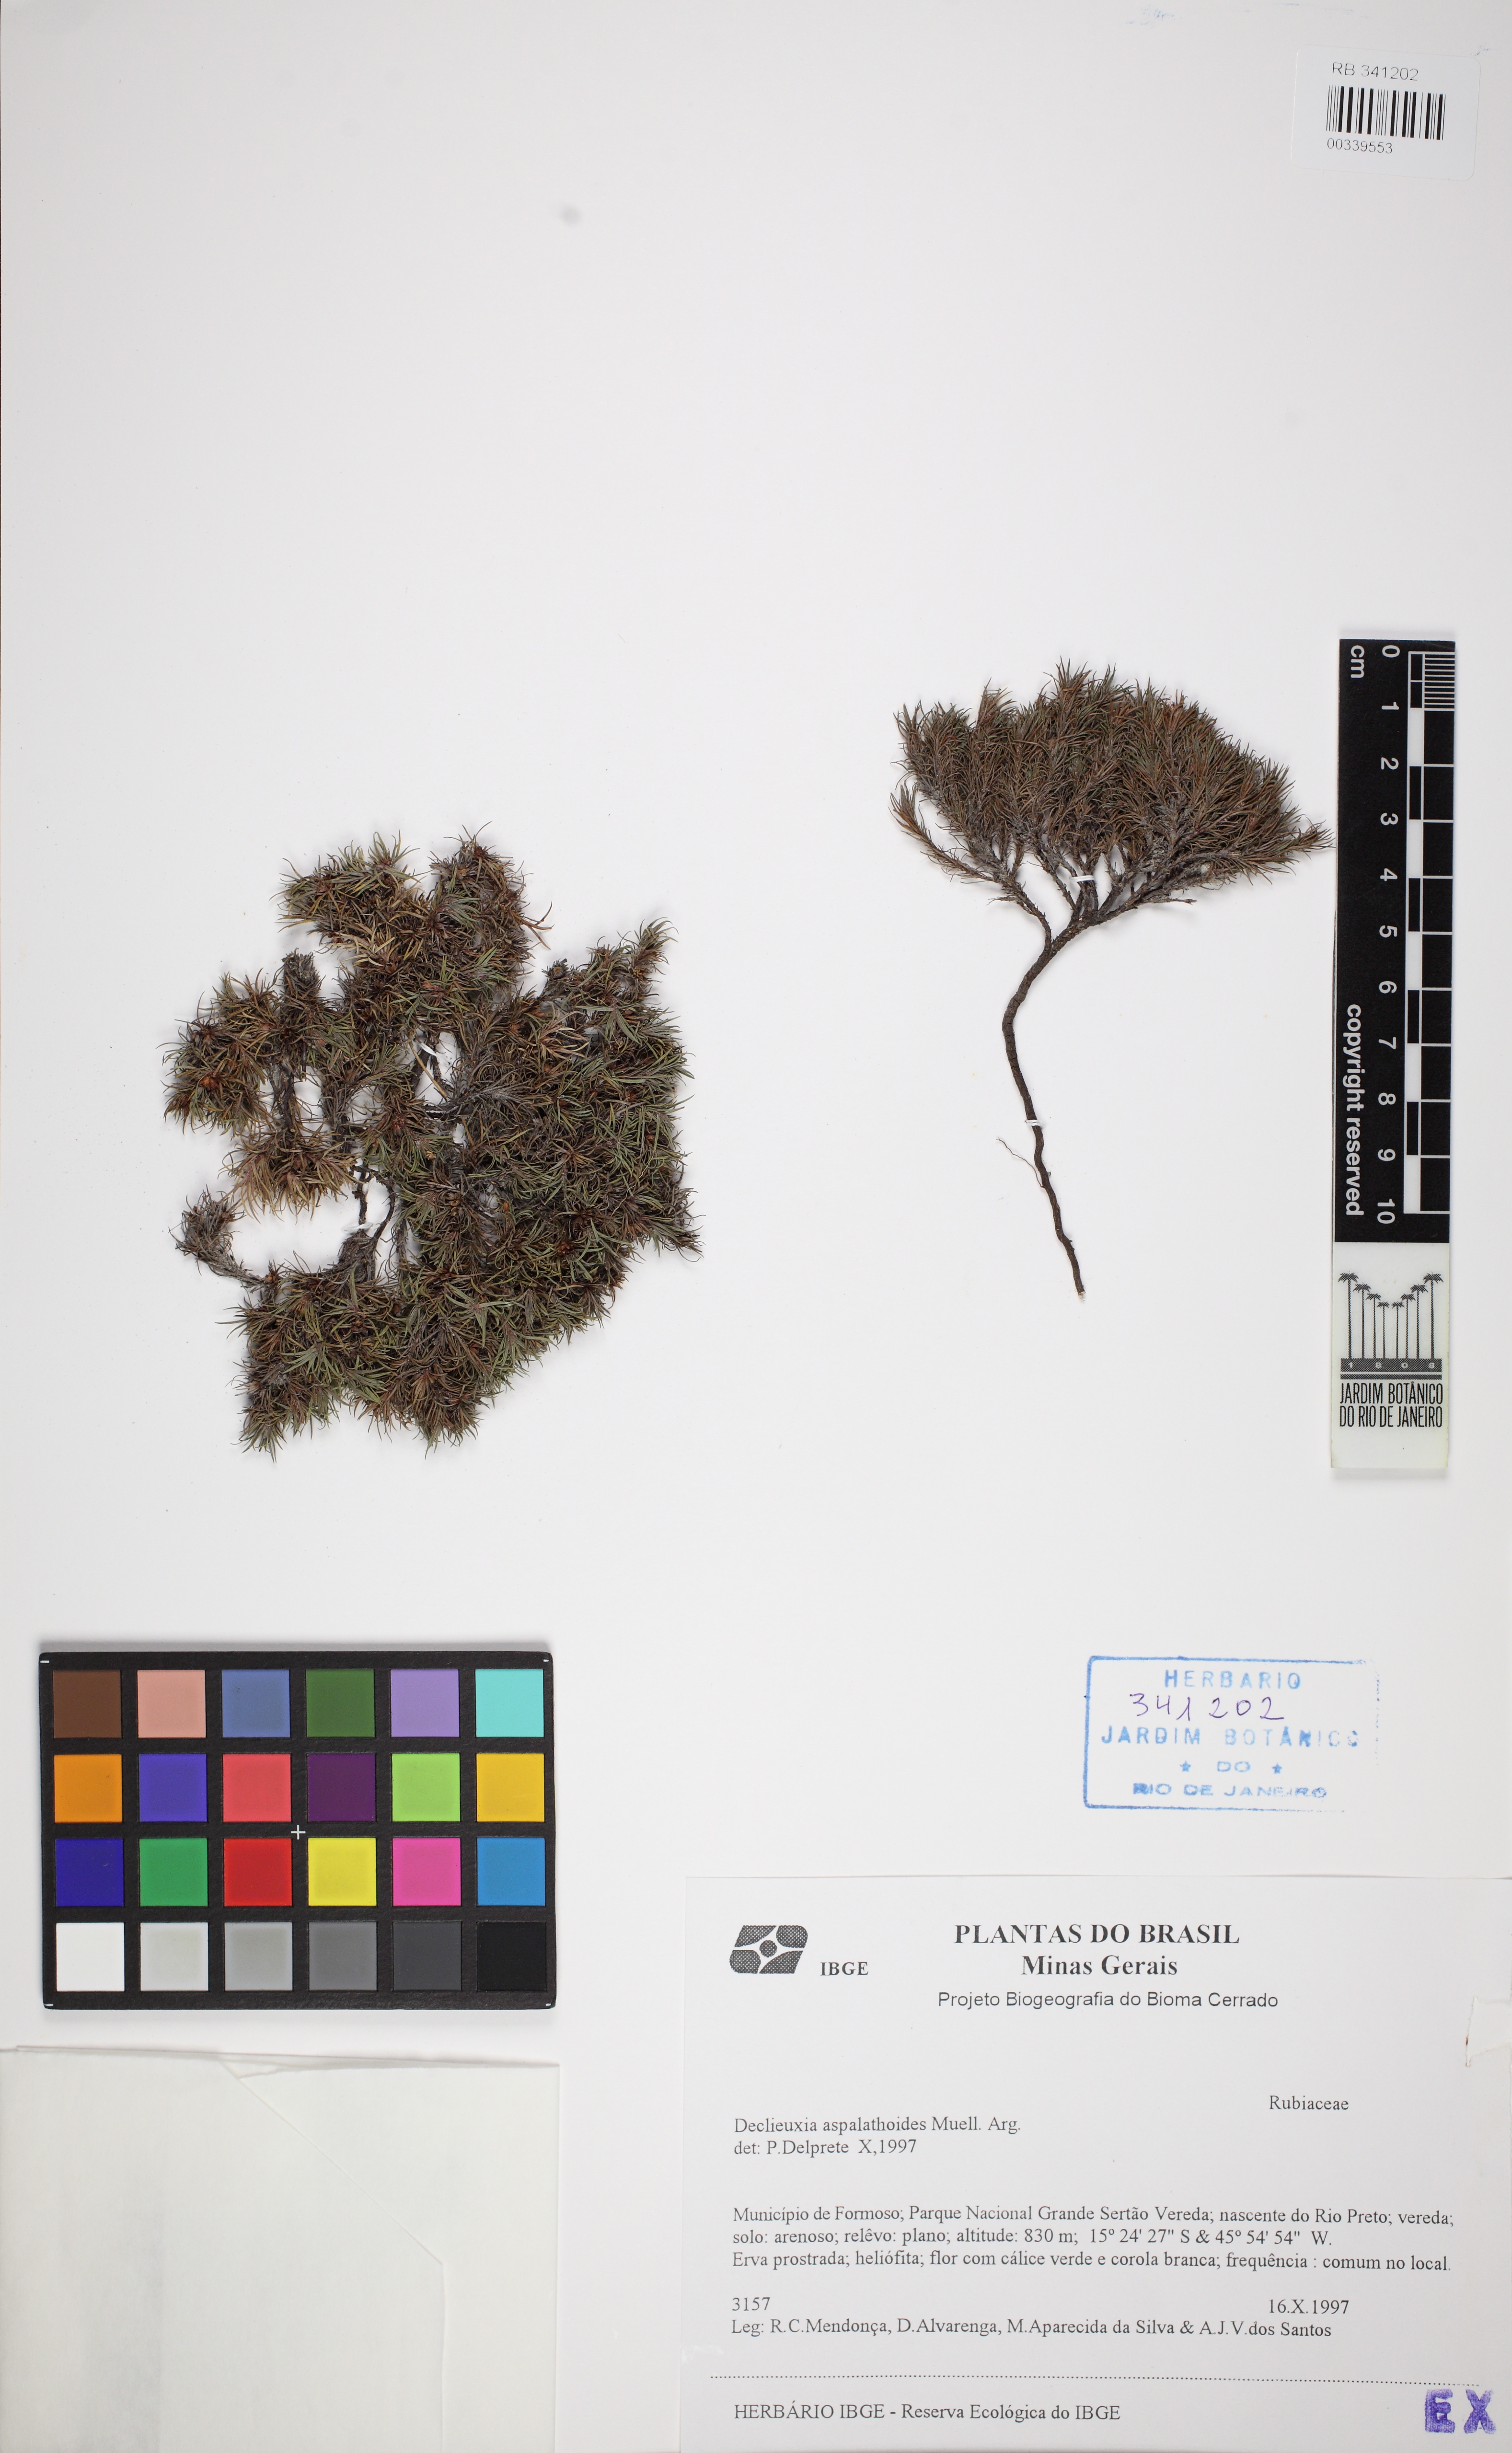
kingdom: Plantae
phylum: Tracheophyta
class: Magnoliopsida
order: Gentianales
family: Rubiaceae
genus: Psyllocarpus
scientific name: Psyllocarpus
